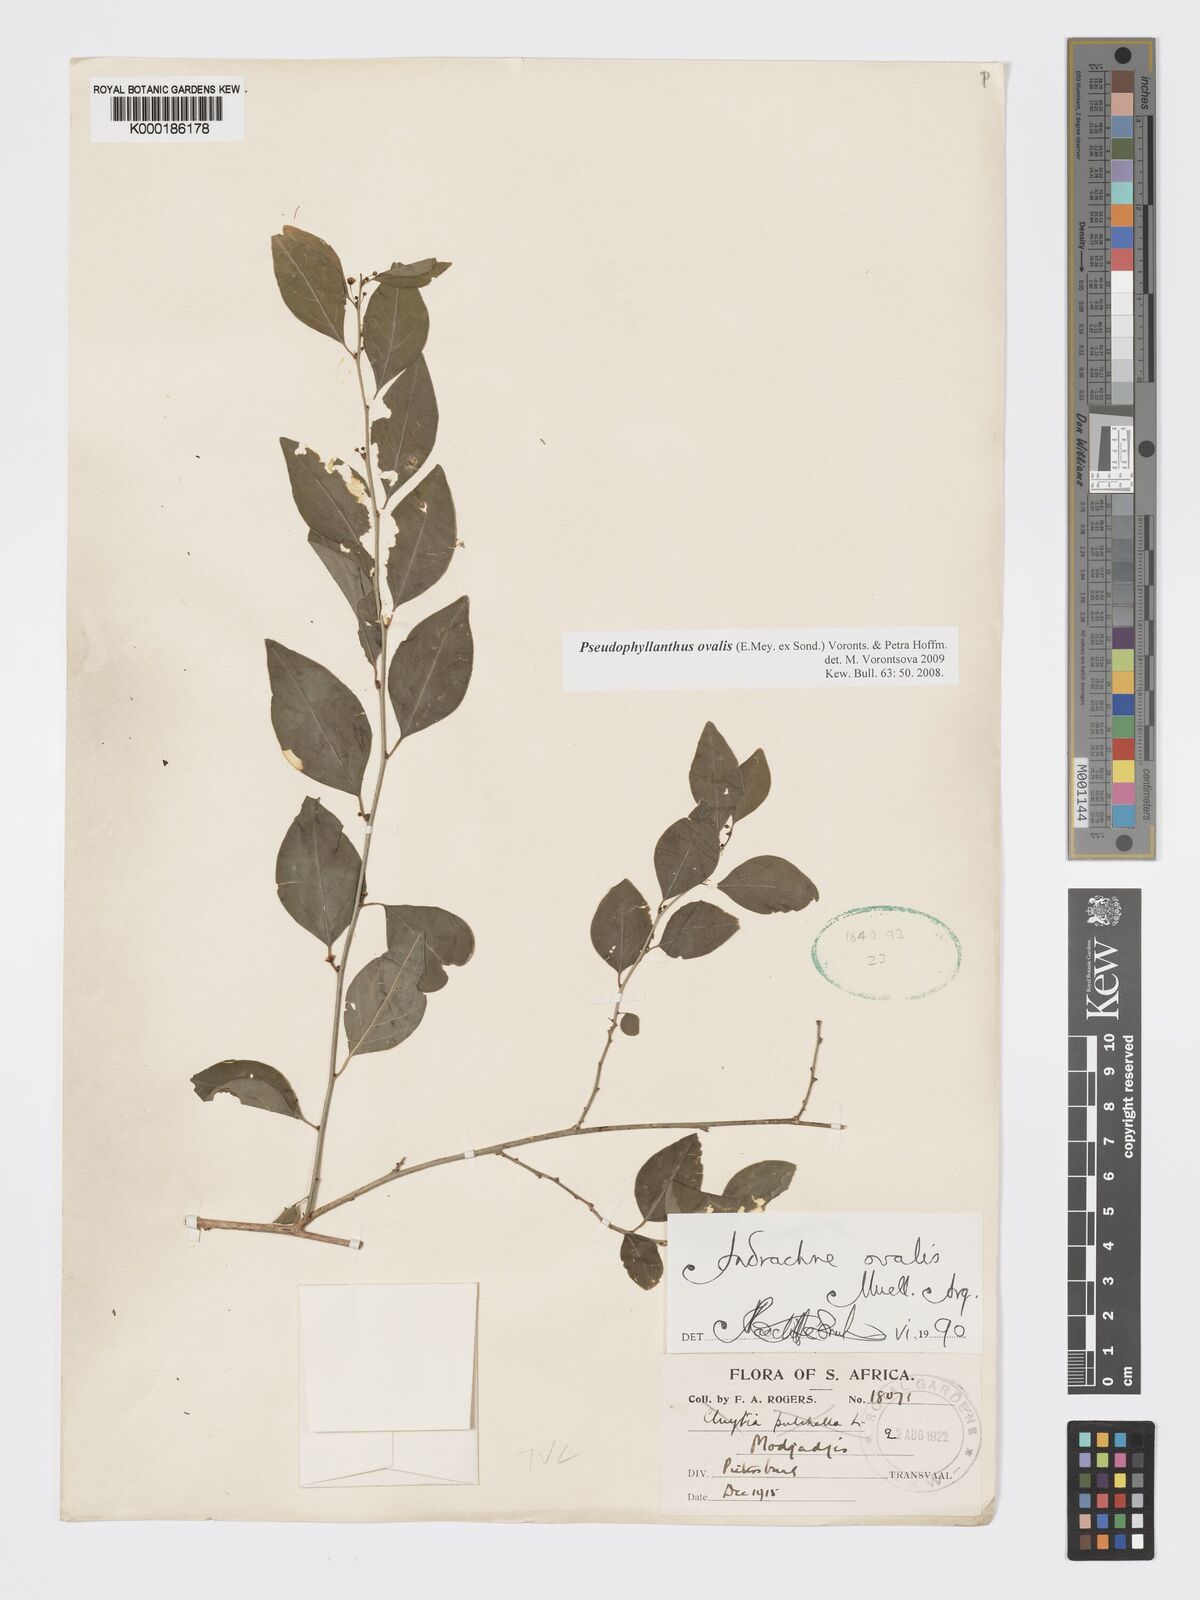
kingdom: Plantae
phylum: Tracheophyta
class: Magnoliopsida
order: Malpighiales
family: Phyllanthaceae
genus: Pseudophyllanthus
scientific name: Pseudophyllanthus ovalis
